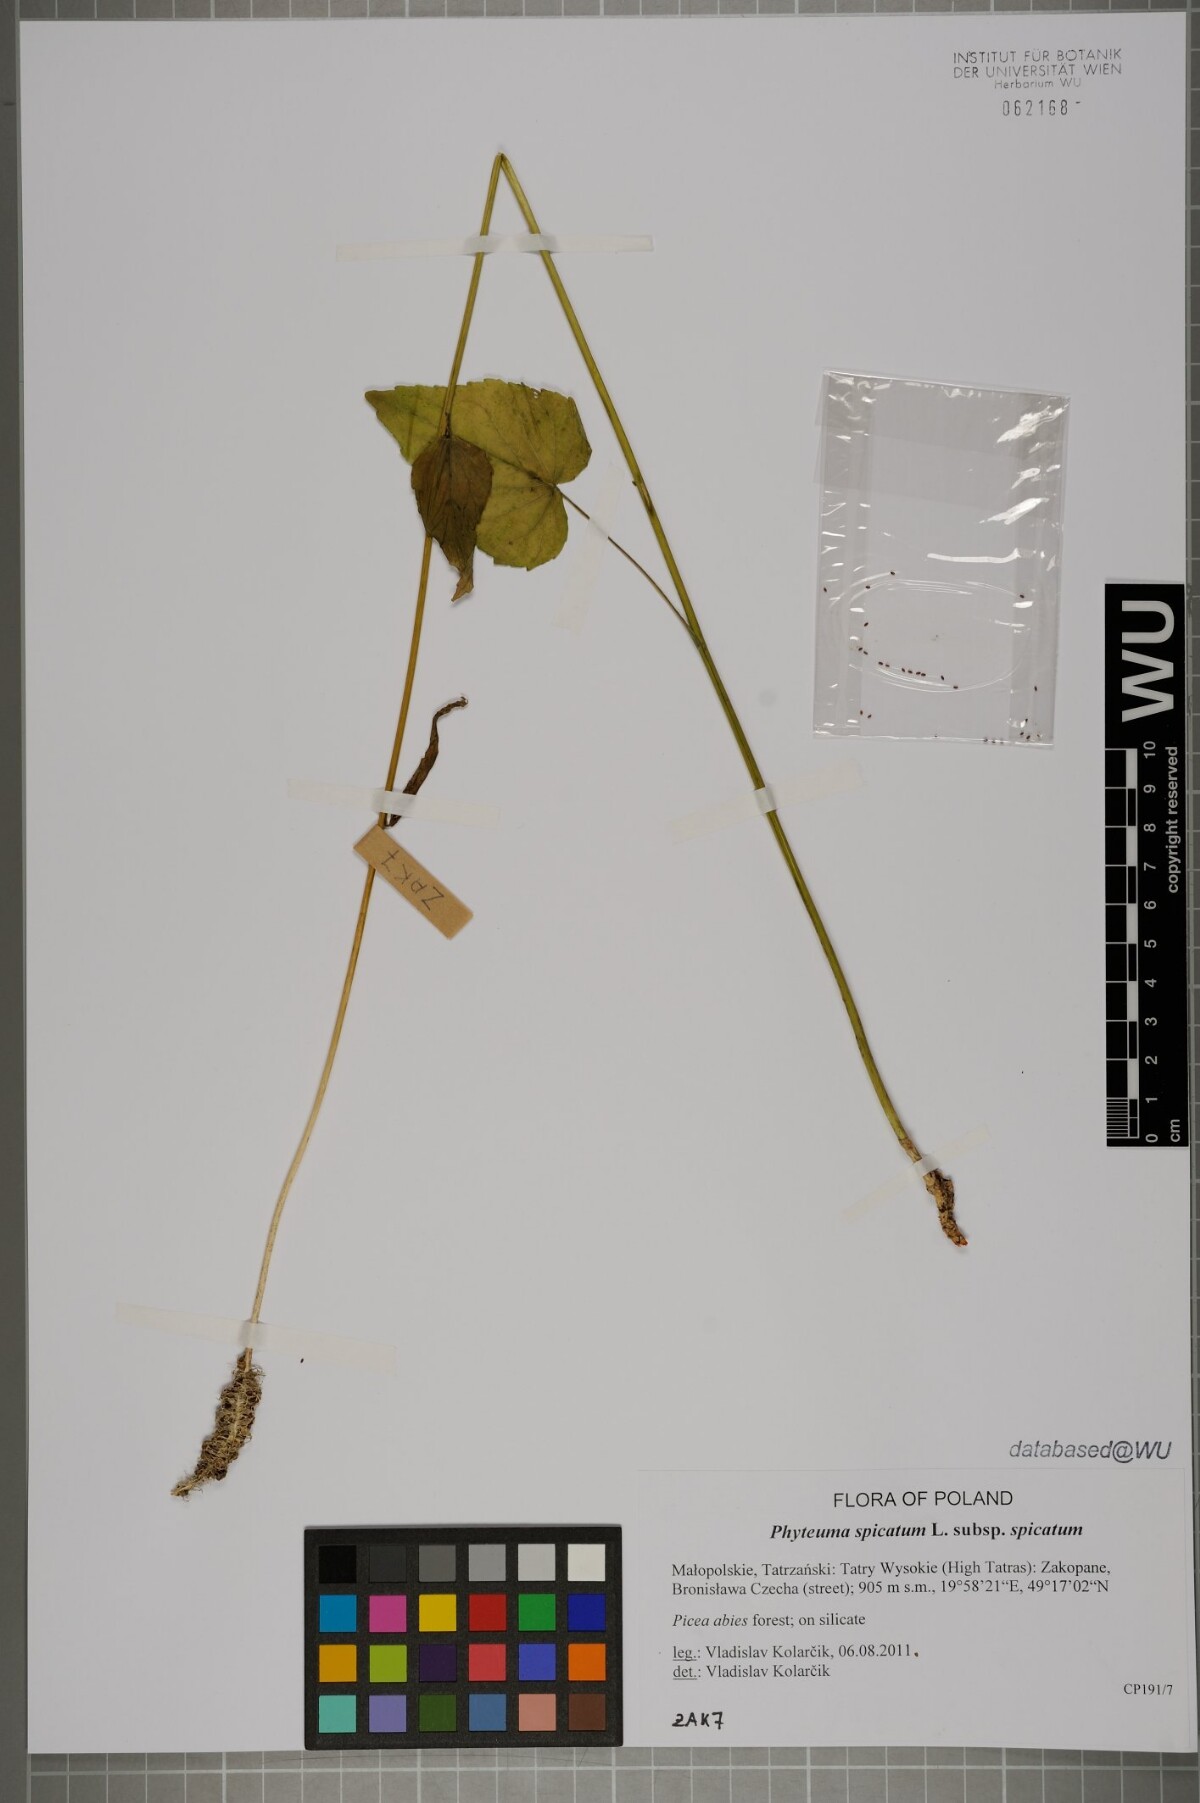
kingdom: Plantae
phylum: Tracheophyta
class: Magnoliopsida
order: Asterales
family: Campanulaceae
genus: Phyteuma
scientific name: Phyteuma spicatum
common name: Spiked rampion
